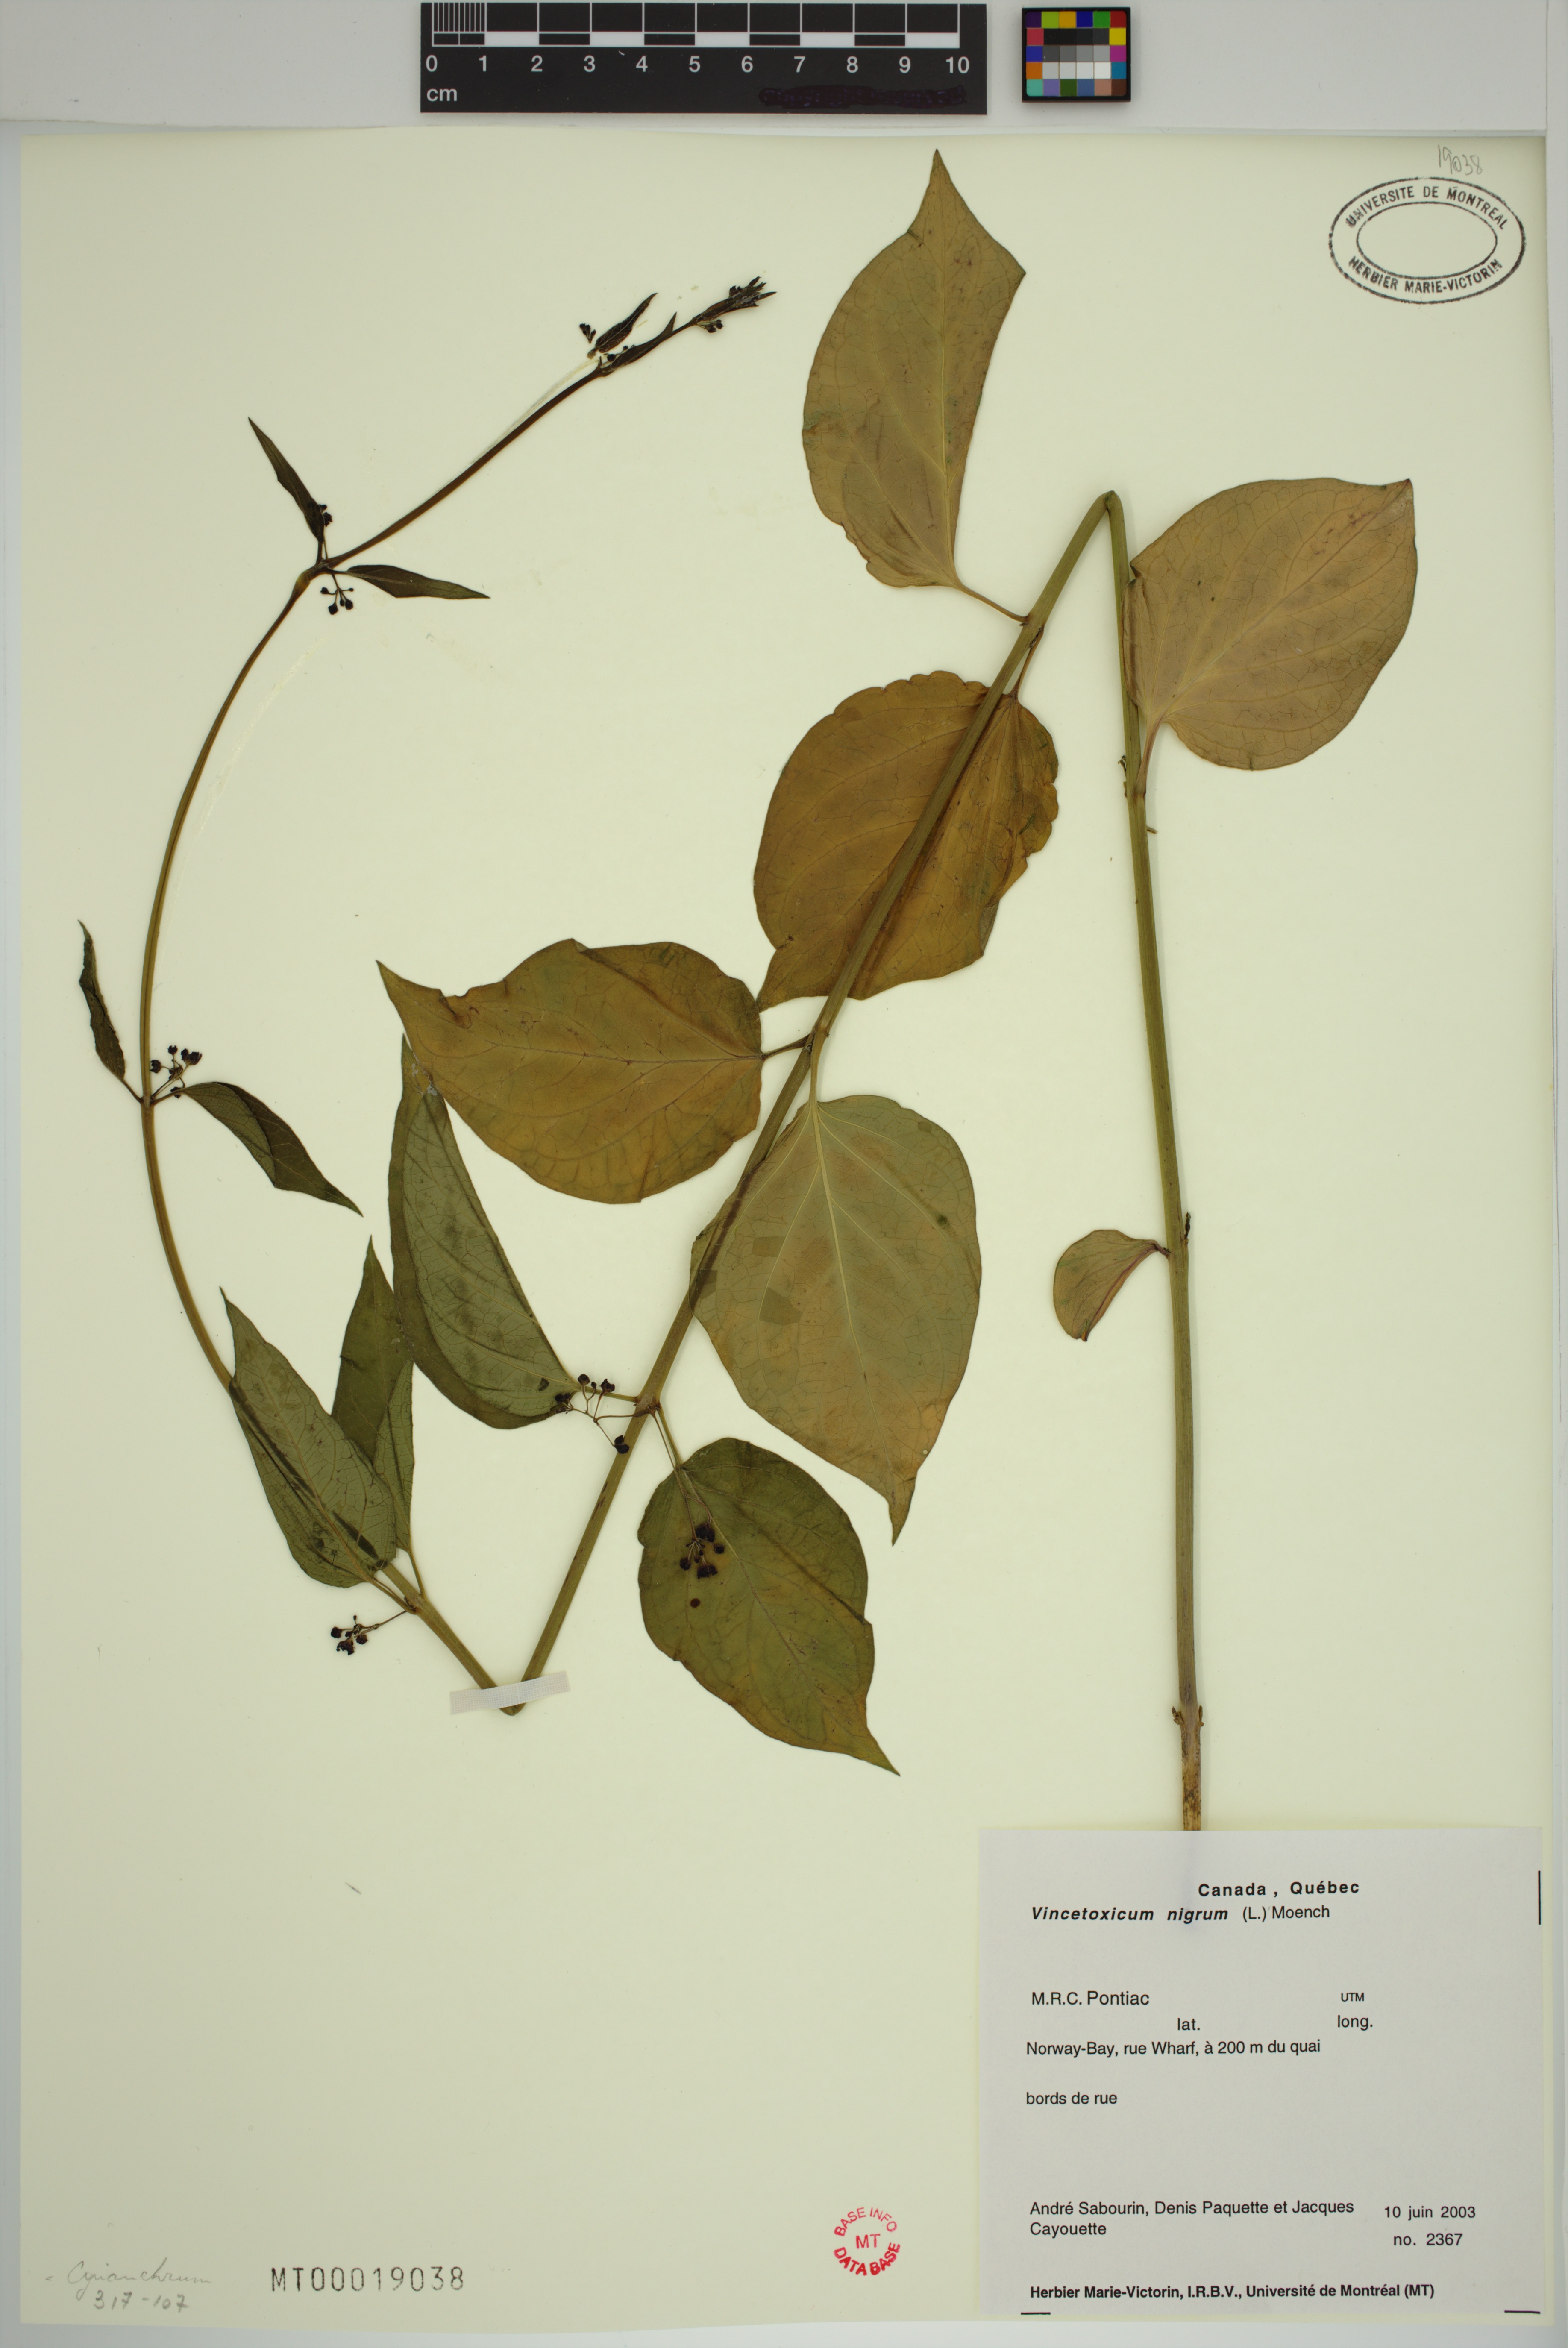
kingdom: Plantae
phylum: Tracheophyta
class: Magnoliopsida
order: Gentianales
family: Apocynaceae
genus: Vincetoxicum
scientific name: Vincetoxicum nigrum
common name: Black swallow-wort
